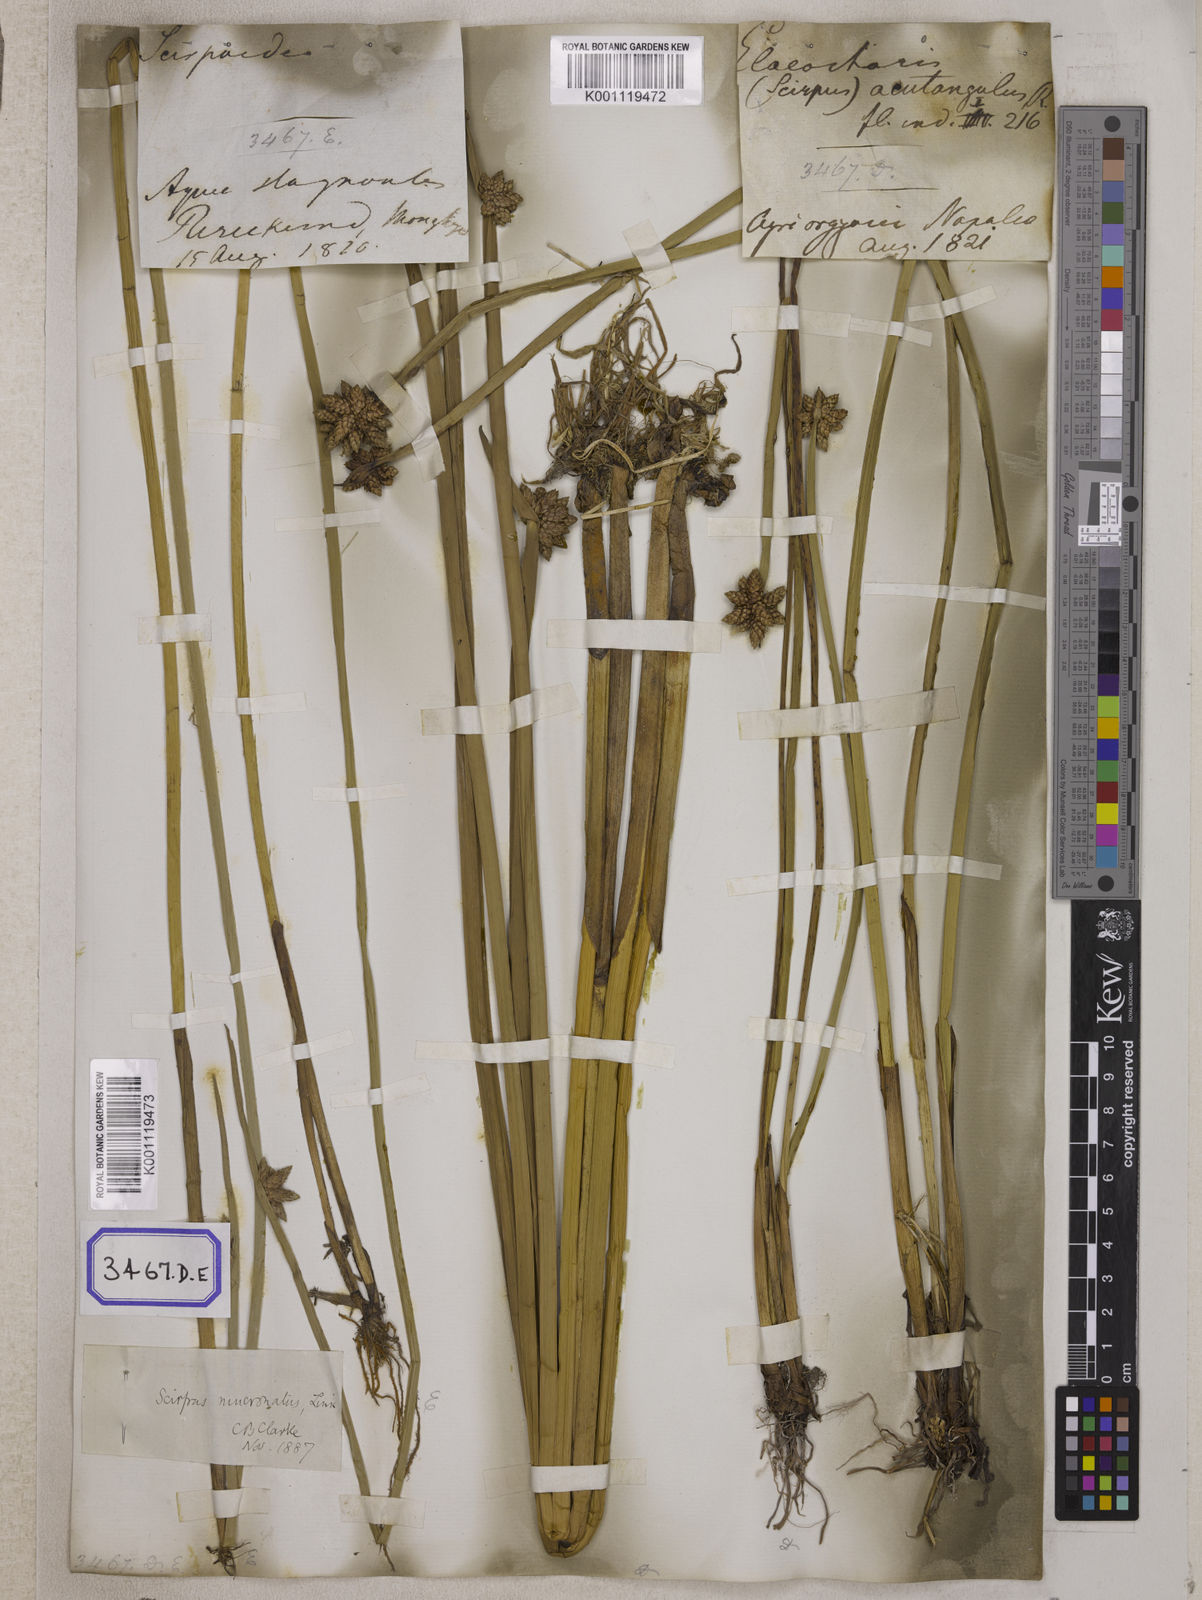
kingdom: Plantae
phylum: Tracheophyta
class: Liliopsida
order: Poales
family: Cyperaceae
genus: Scirpus
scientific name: Scirpus
